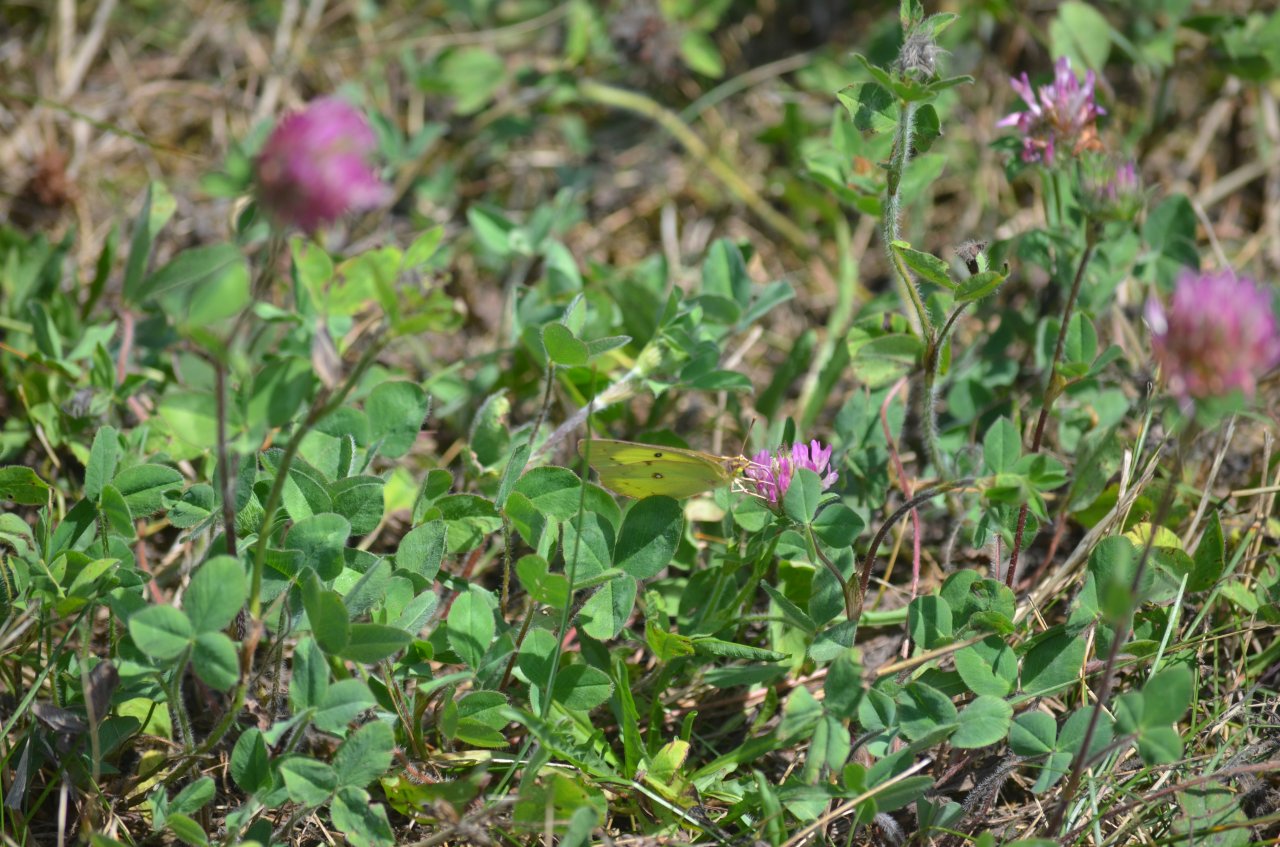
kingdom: Animalia
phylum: Arthropoda
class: Insecta
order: Lepidoptera
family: Pieridae
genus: Colias
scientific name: Colias philodice
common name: Clouded Sulphur
